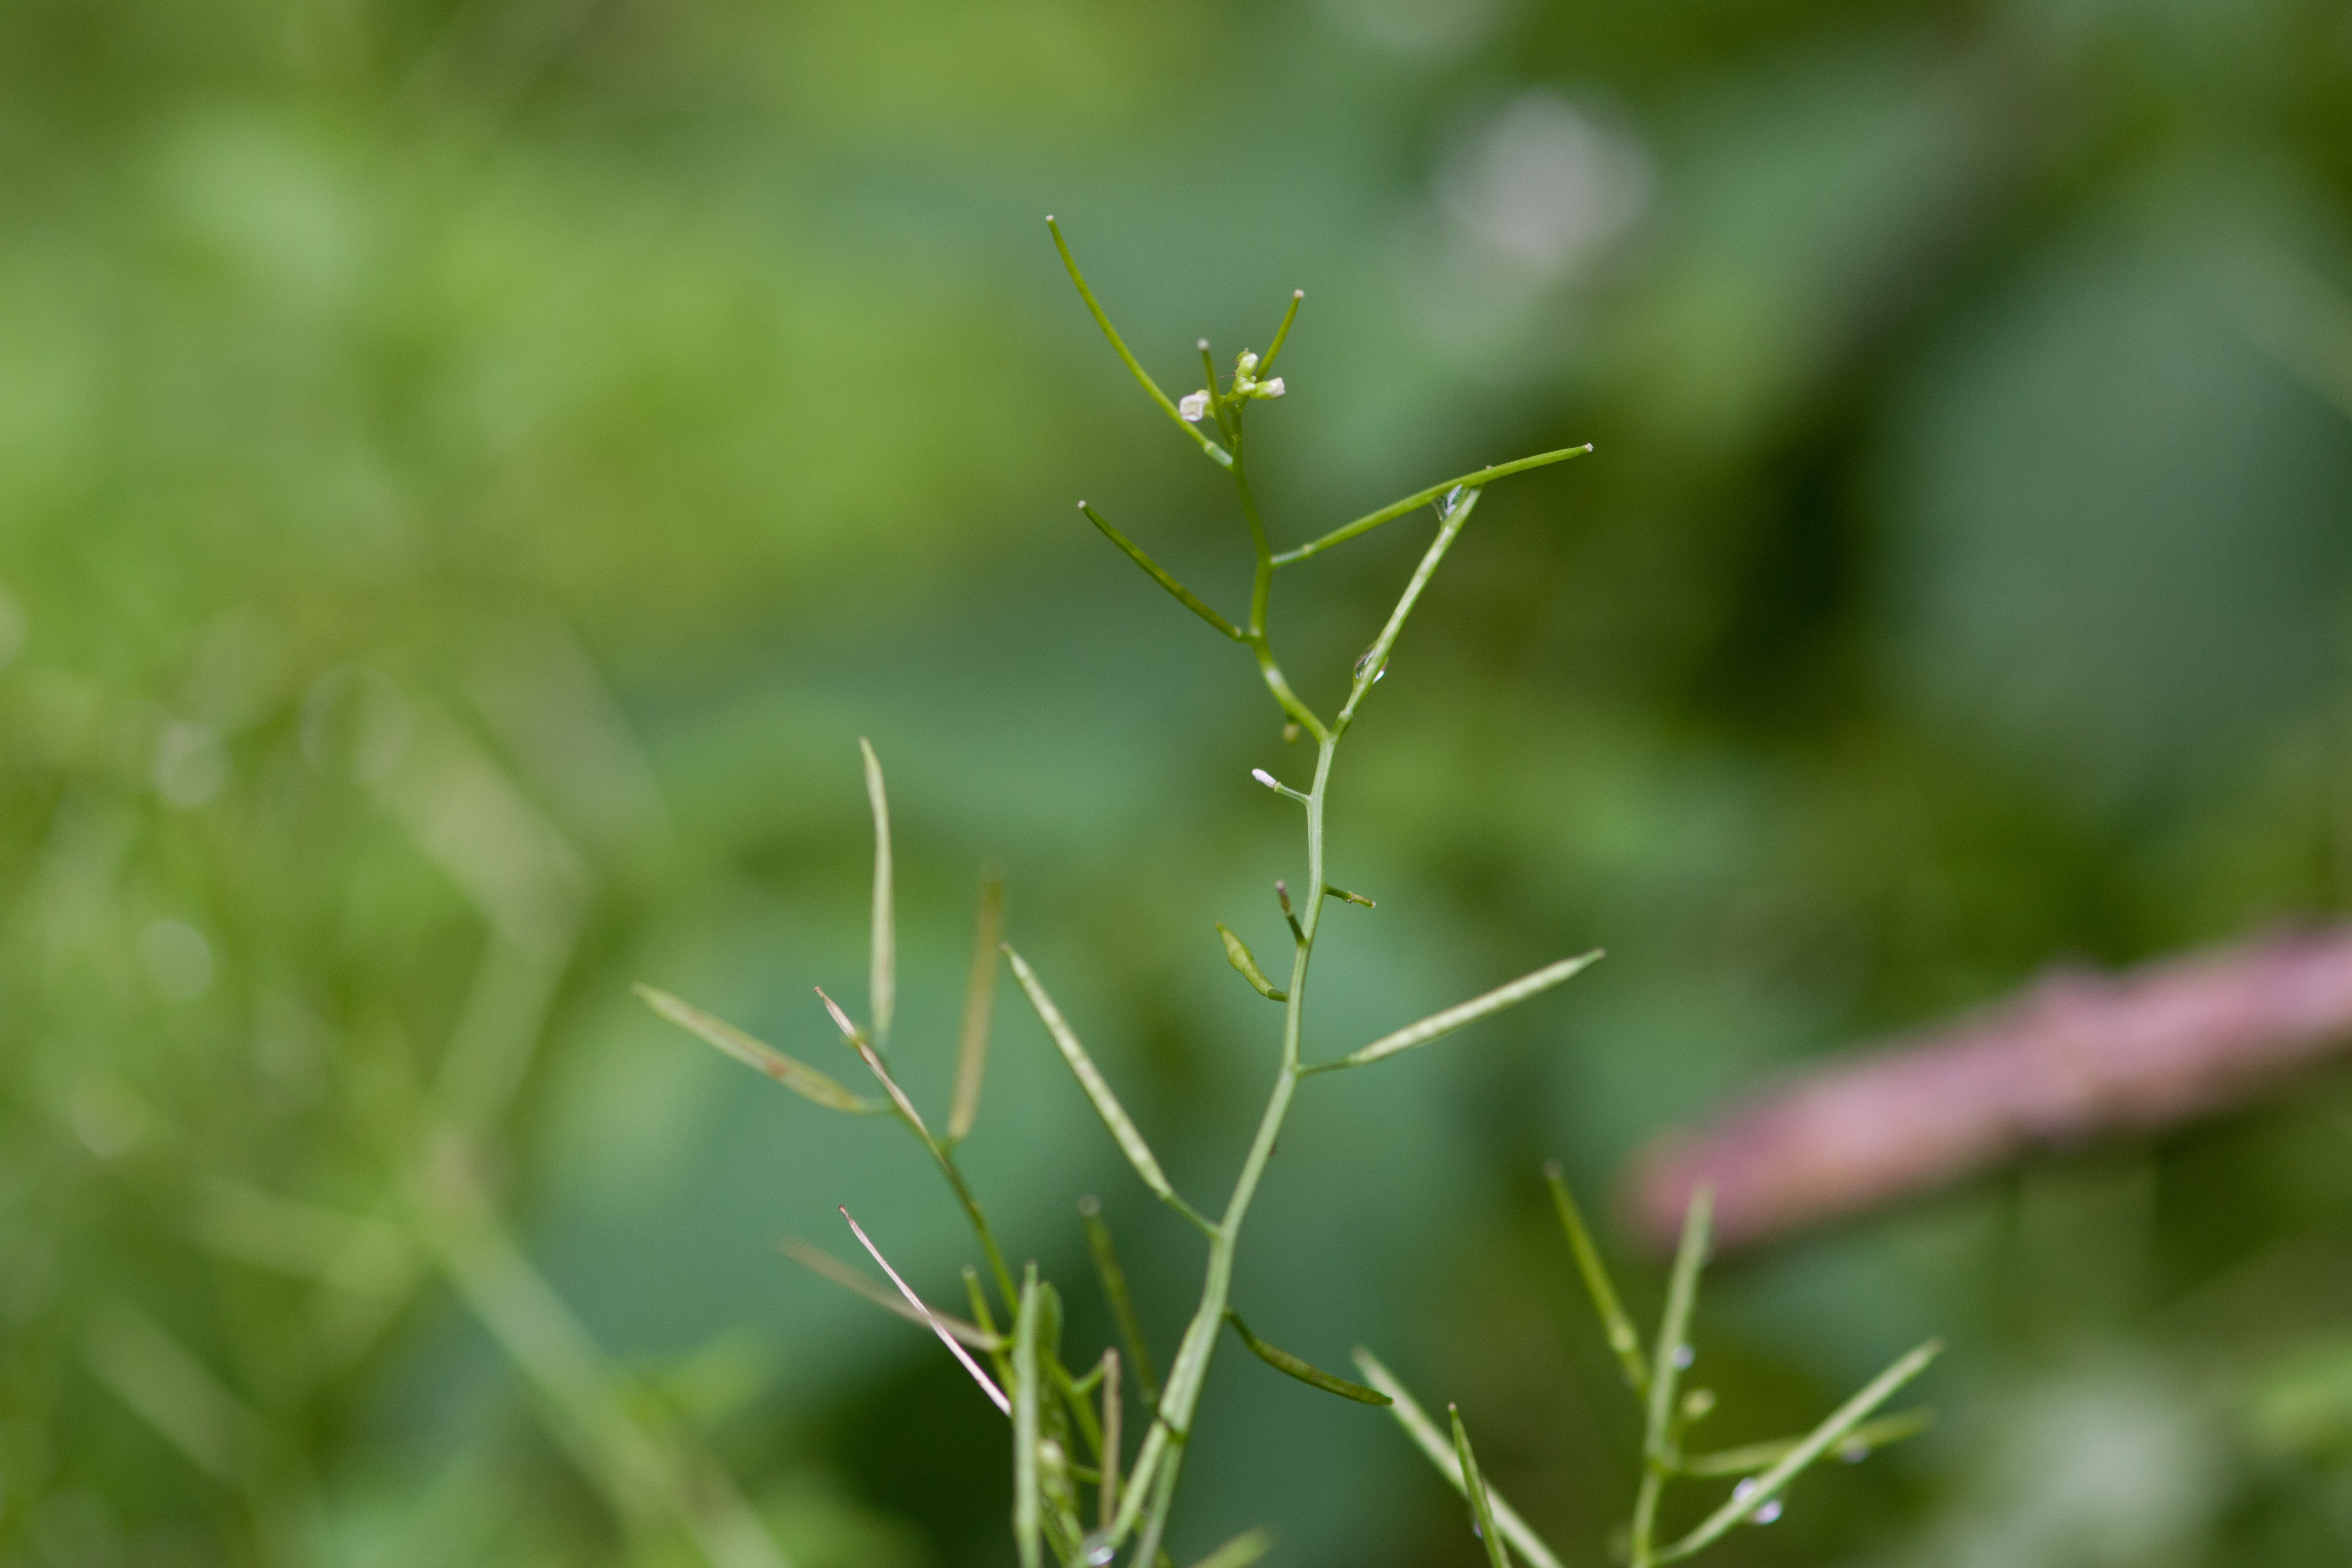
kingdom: Plantae
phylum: Tracheophyta
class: Magnoliopsida
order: Brassicales
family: Brassicaceae
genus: Cardamine
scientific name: Cardamine flexuosa
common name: bittercress
